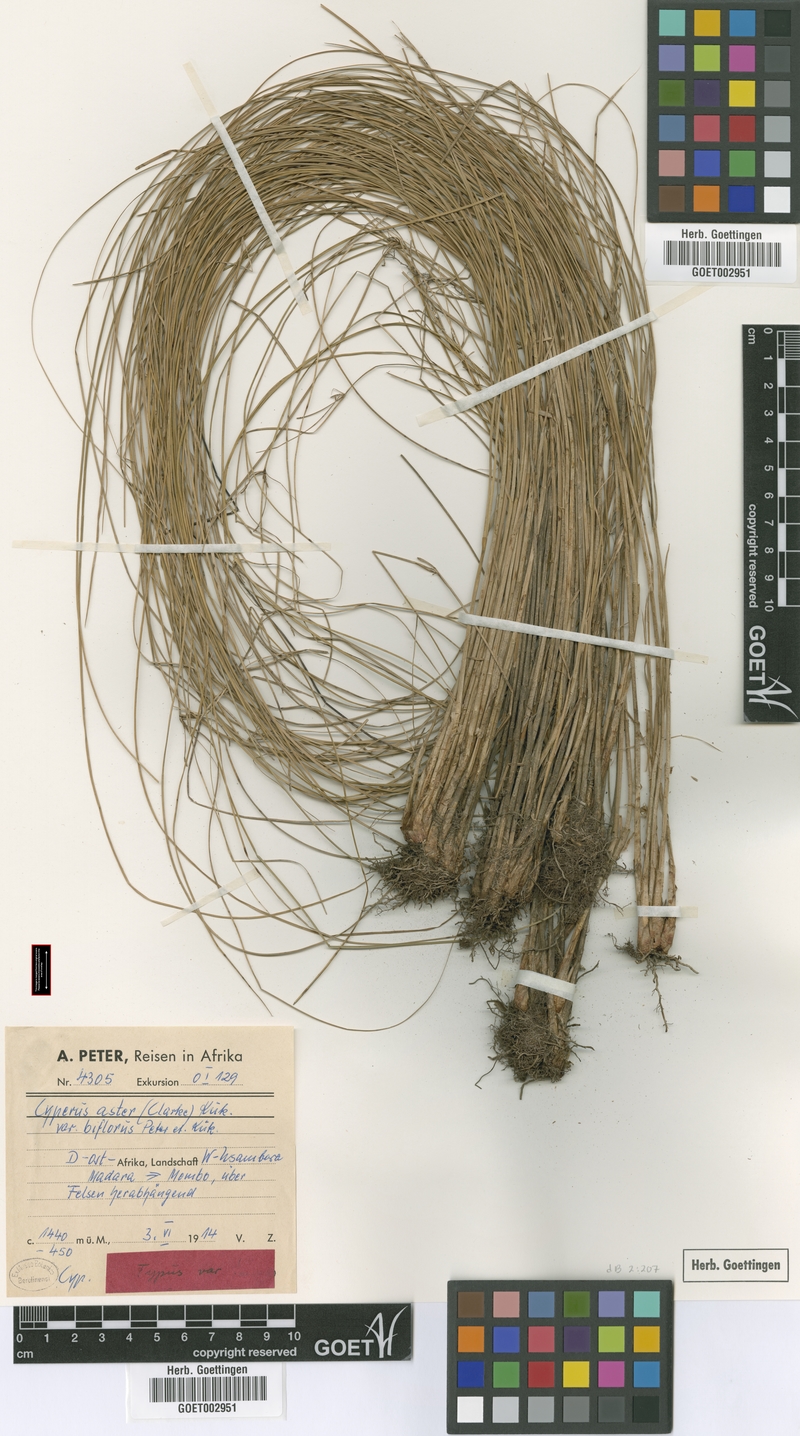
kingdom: Plantae
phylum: Tracheophyta
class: Liliopsida
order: Poales
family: Cyperaceae
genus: Cyperus
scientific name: Cyperus aster
